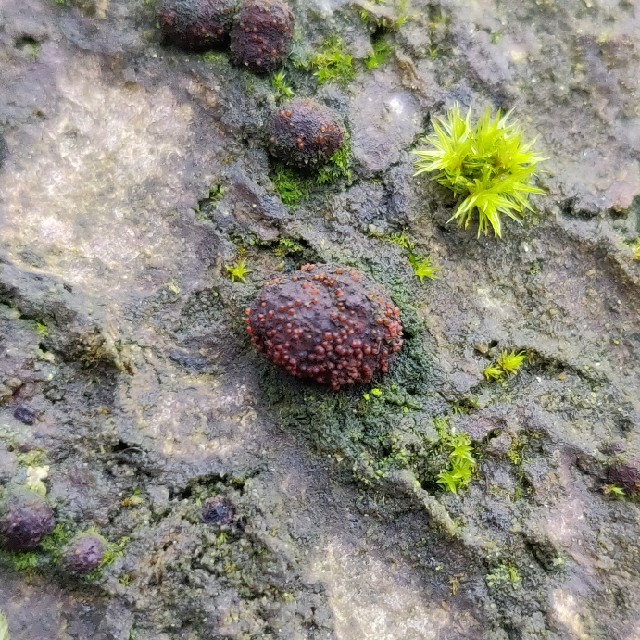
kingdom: Fungi
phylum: Ascomycota
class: Sordariomycetes
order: Hypocreales
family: Nectriaceae
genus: Cosmospora
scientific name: Cosmospora arxii
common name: kuljordbær-cinnobersvamp
